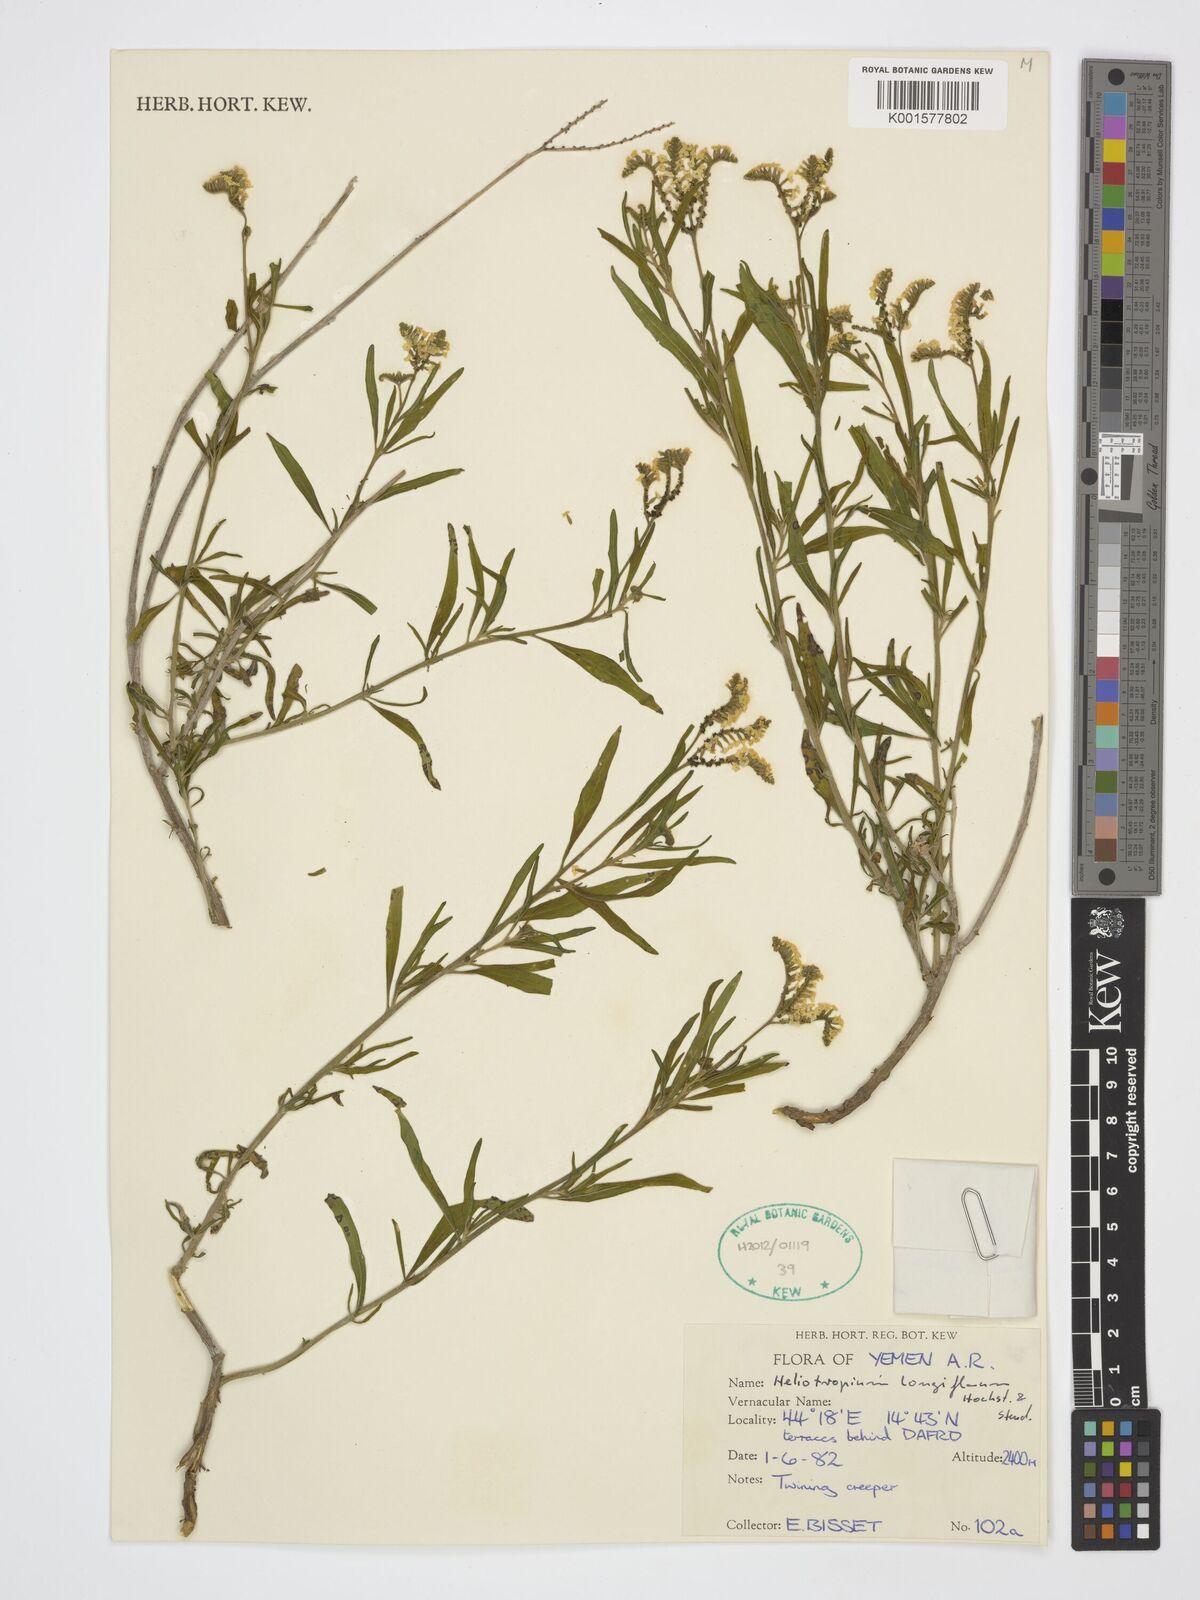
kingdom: Plantae
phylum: Tracheophyta
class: Magnoliopsida
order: Boraginales
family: Heliotropiaceae
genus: Heliotropium
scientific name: Heliotropium longiflorum
